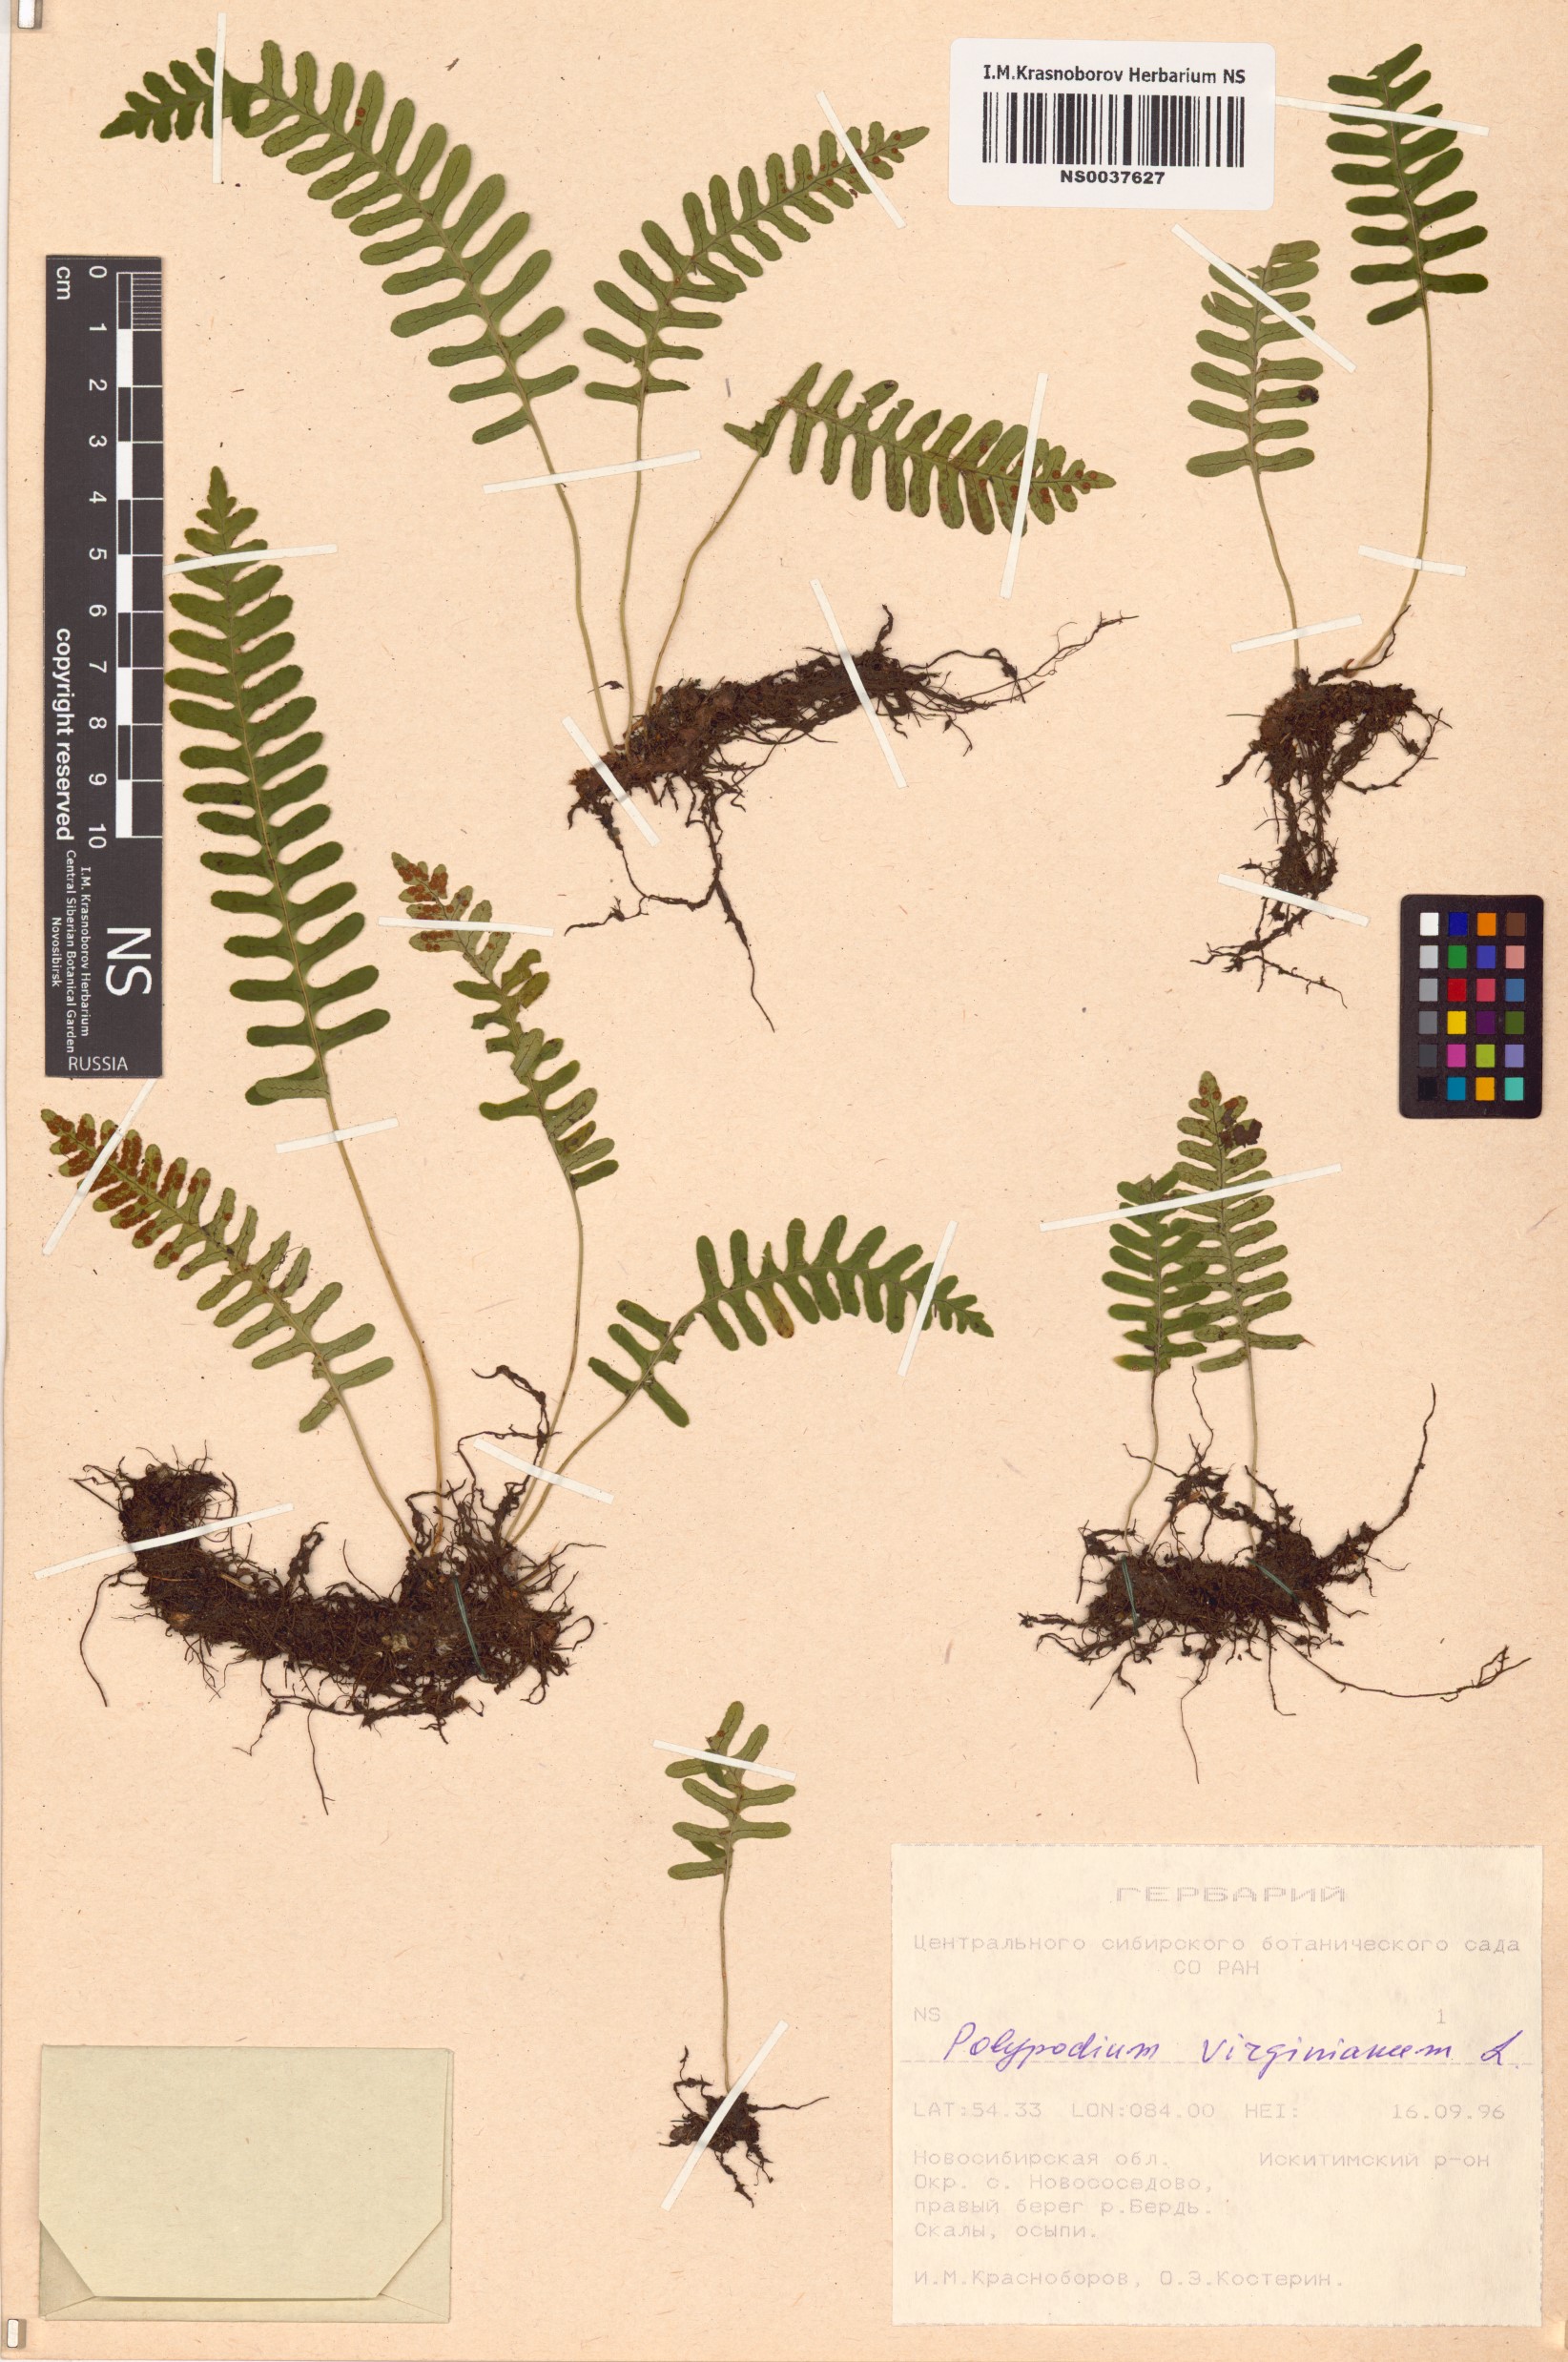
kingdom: Plantae
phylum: Tracheophyta
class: Polypodiopsida
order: Polypodiales
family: Polypodiaceae
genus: Polypodium
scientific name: Polypodium virginianum
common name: American wall fern
